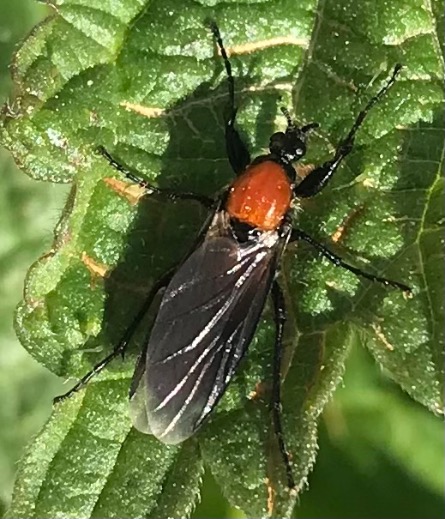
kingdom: Animalia
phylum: Arthropoda
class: Insecta
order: Diptera
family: Bibionidae
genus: Bibio
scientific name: Bibio hortulanus
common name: Havehårmyg
